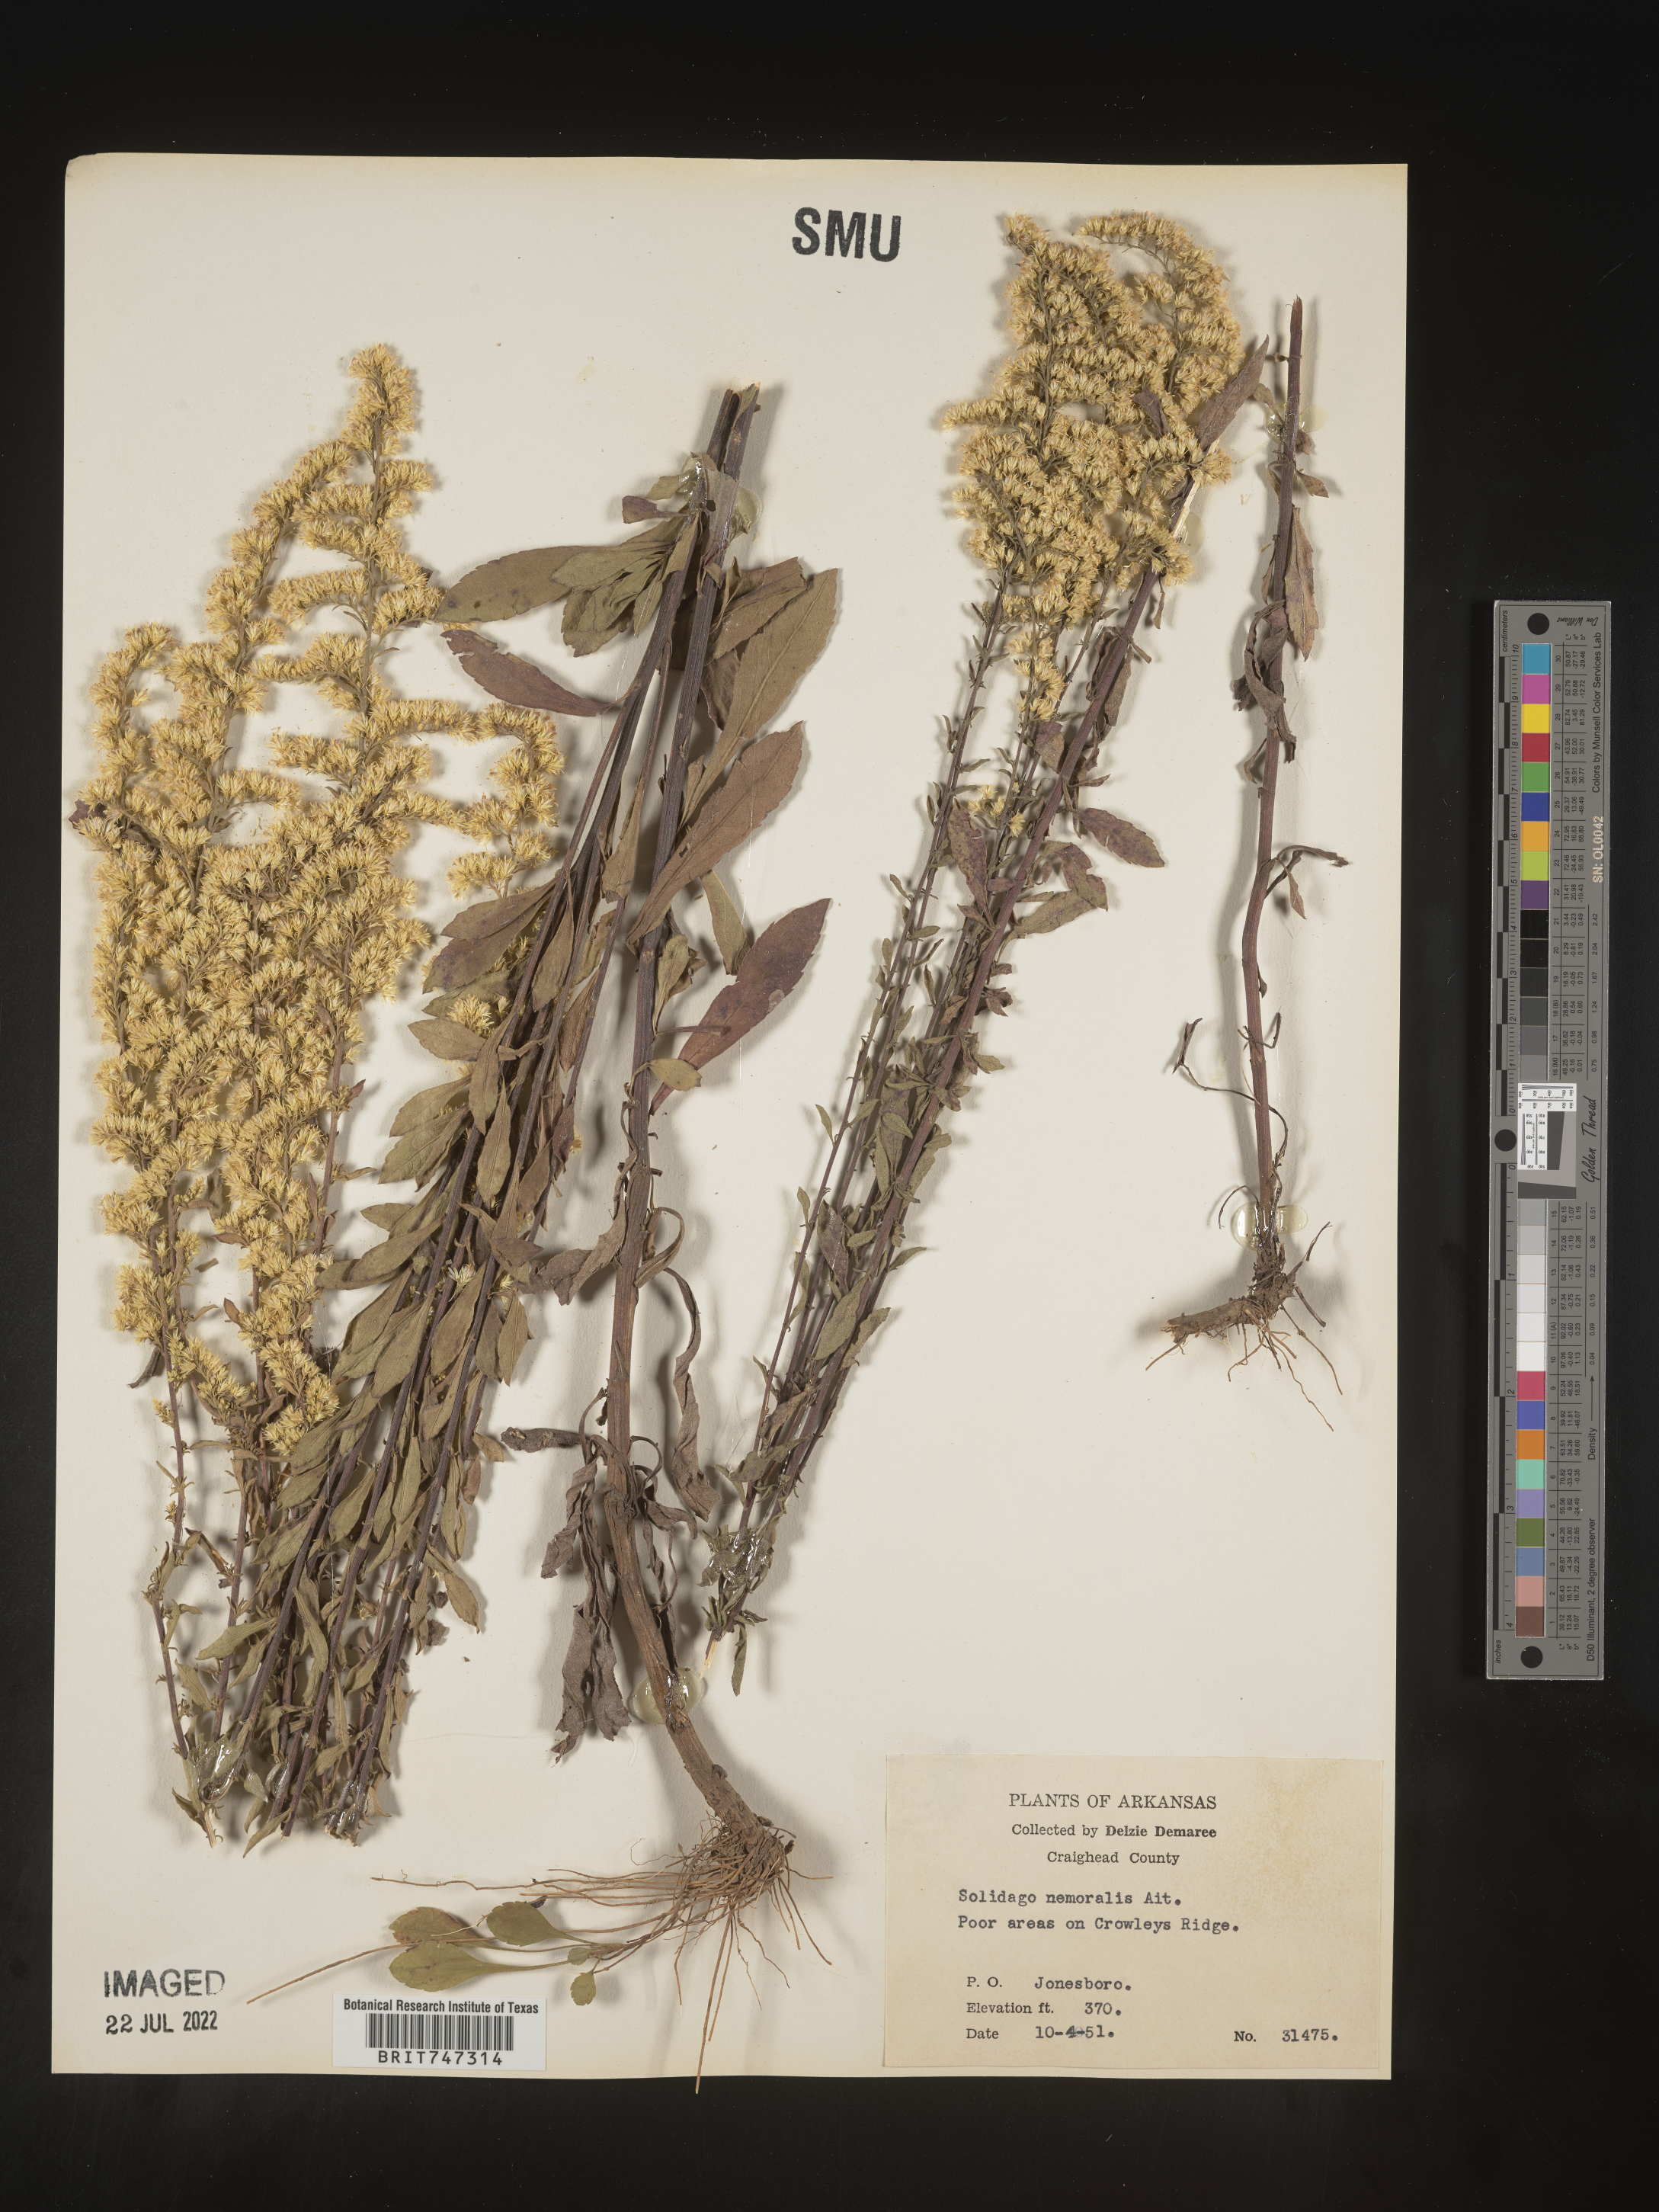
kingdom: Plantae
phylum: Tracheophyta
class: Magnoliopsida
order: Asterales
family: Asteraceae
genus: Solidago
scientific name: Solidago nemoralis
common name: Grey goldenrod
